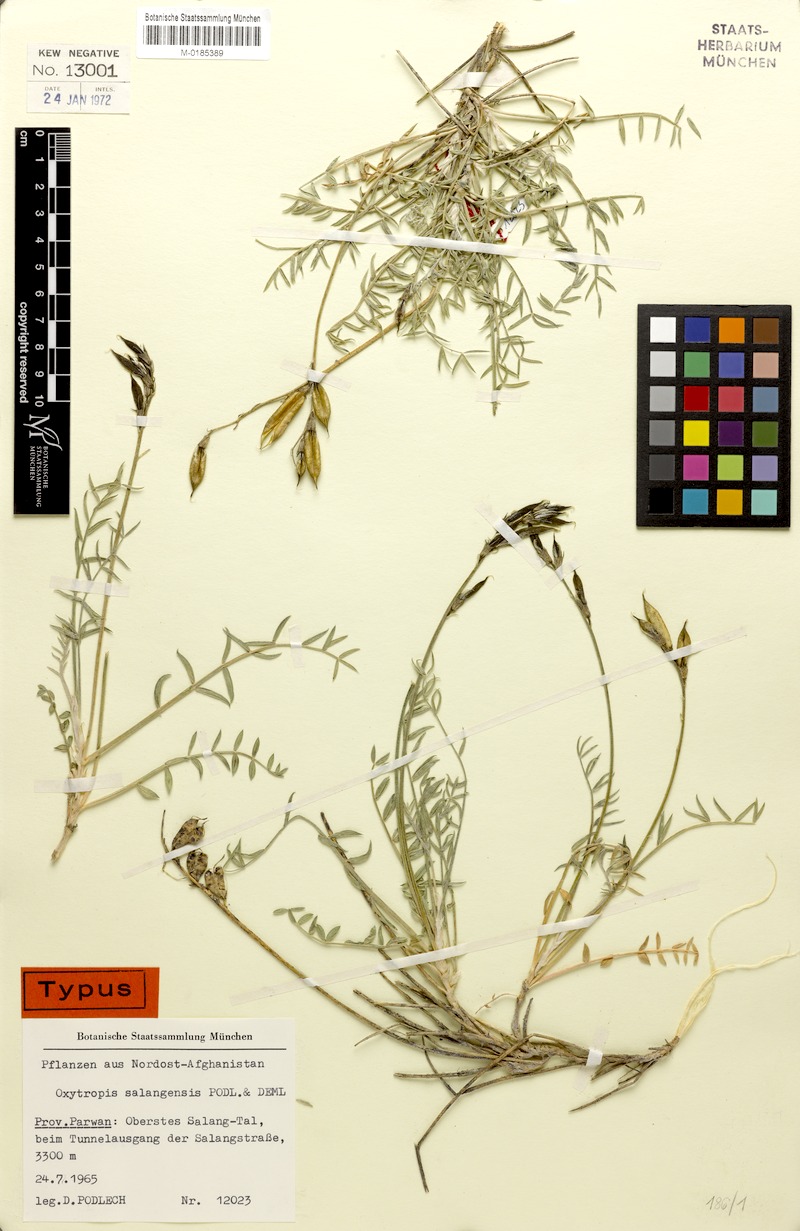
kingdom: Plantae
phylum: Tracheophyta
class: Magnoliopsida
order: Fabales
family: Fabaceae
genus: Oxytropis
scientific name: Oxytropis panjshirica
